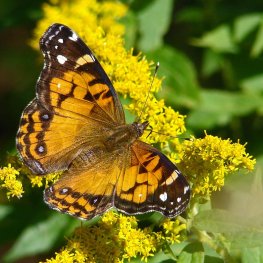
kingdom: Animalia
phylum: Arthropoda
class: Insecta
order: Lepidoptera
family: Nymphalidae
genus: Vanessa
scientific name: Vanessa virginiensis
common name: American Lady
